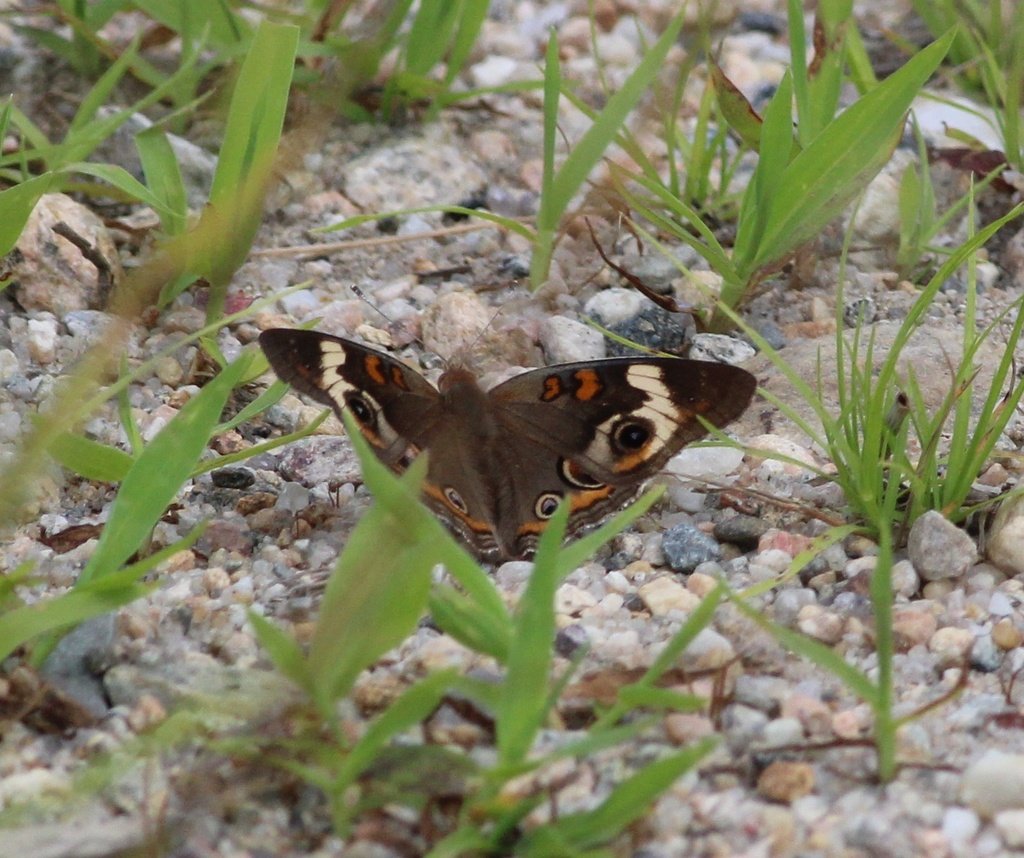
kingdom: Animalia
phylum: Arthropoda
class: Insecta
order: Lepidoptera
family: Nymphalidae
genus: Junonia
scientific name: Junonia coenia
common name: Common Buckeye
